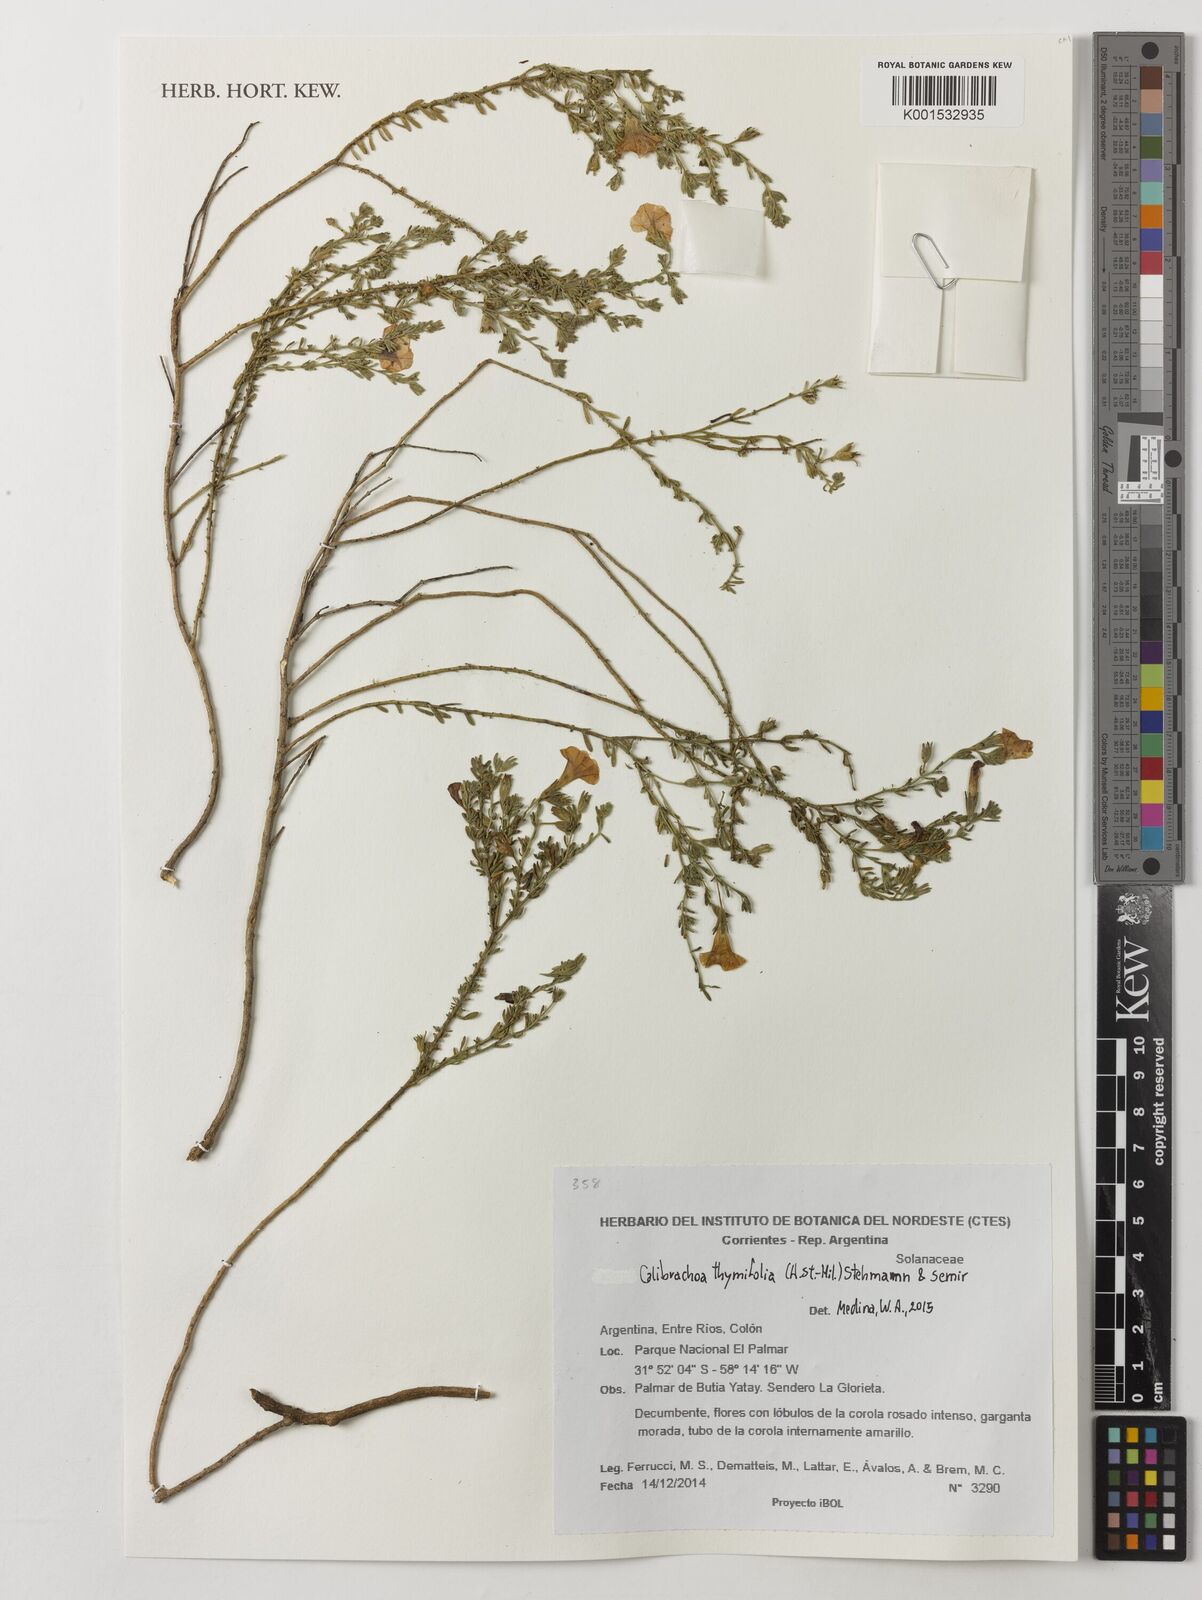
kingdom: Plantae
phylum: Tracheophyta
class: Magnoliopsida
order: Solanales
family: Solanaceae
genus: Calibrachoa
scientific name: Calibrachoa thymifolia
